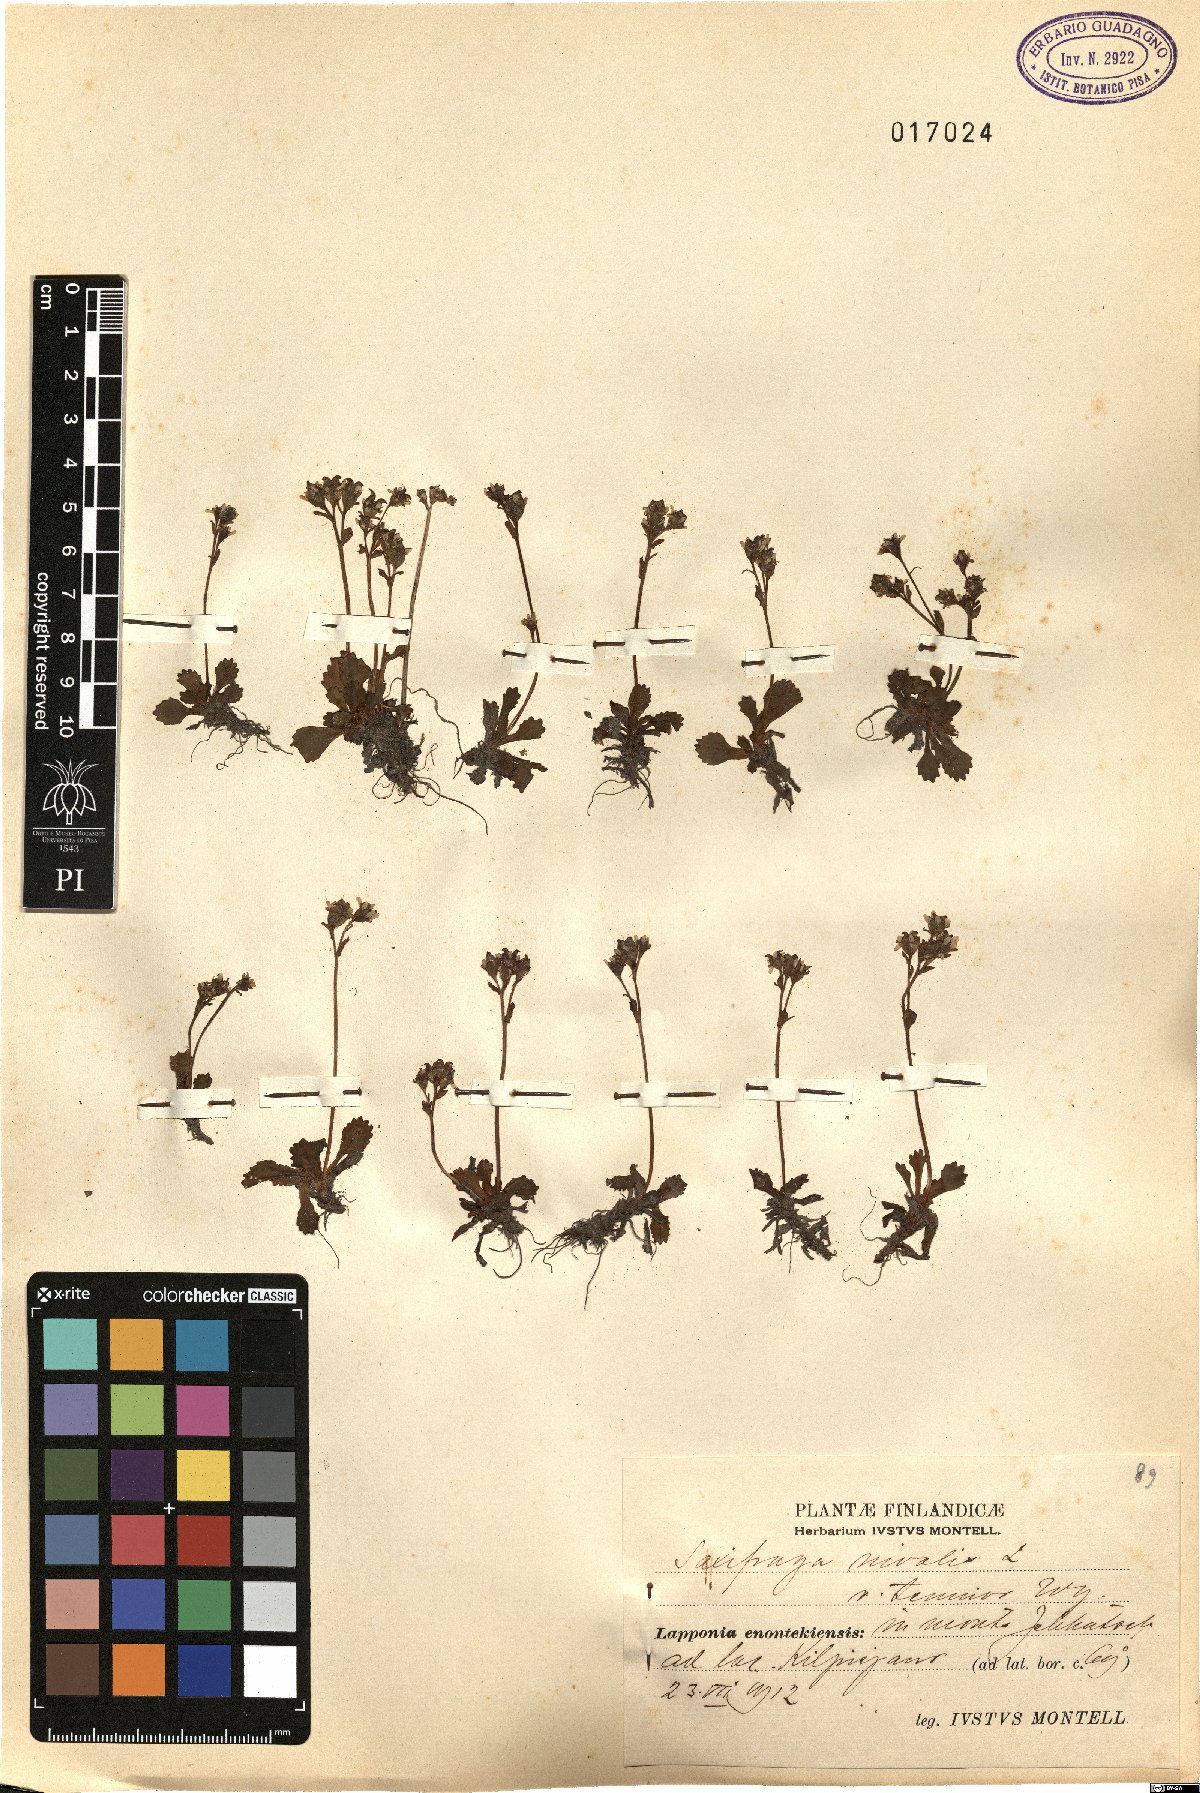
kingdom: Plantae
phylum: Tracheophyta
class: Magnoliopsida
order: Saxifragales
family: Saxifragaceae
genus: Micranthes
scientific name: Micranthes tenuis
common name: Ottertail pass saxifrage
